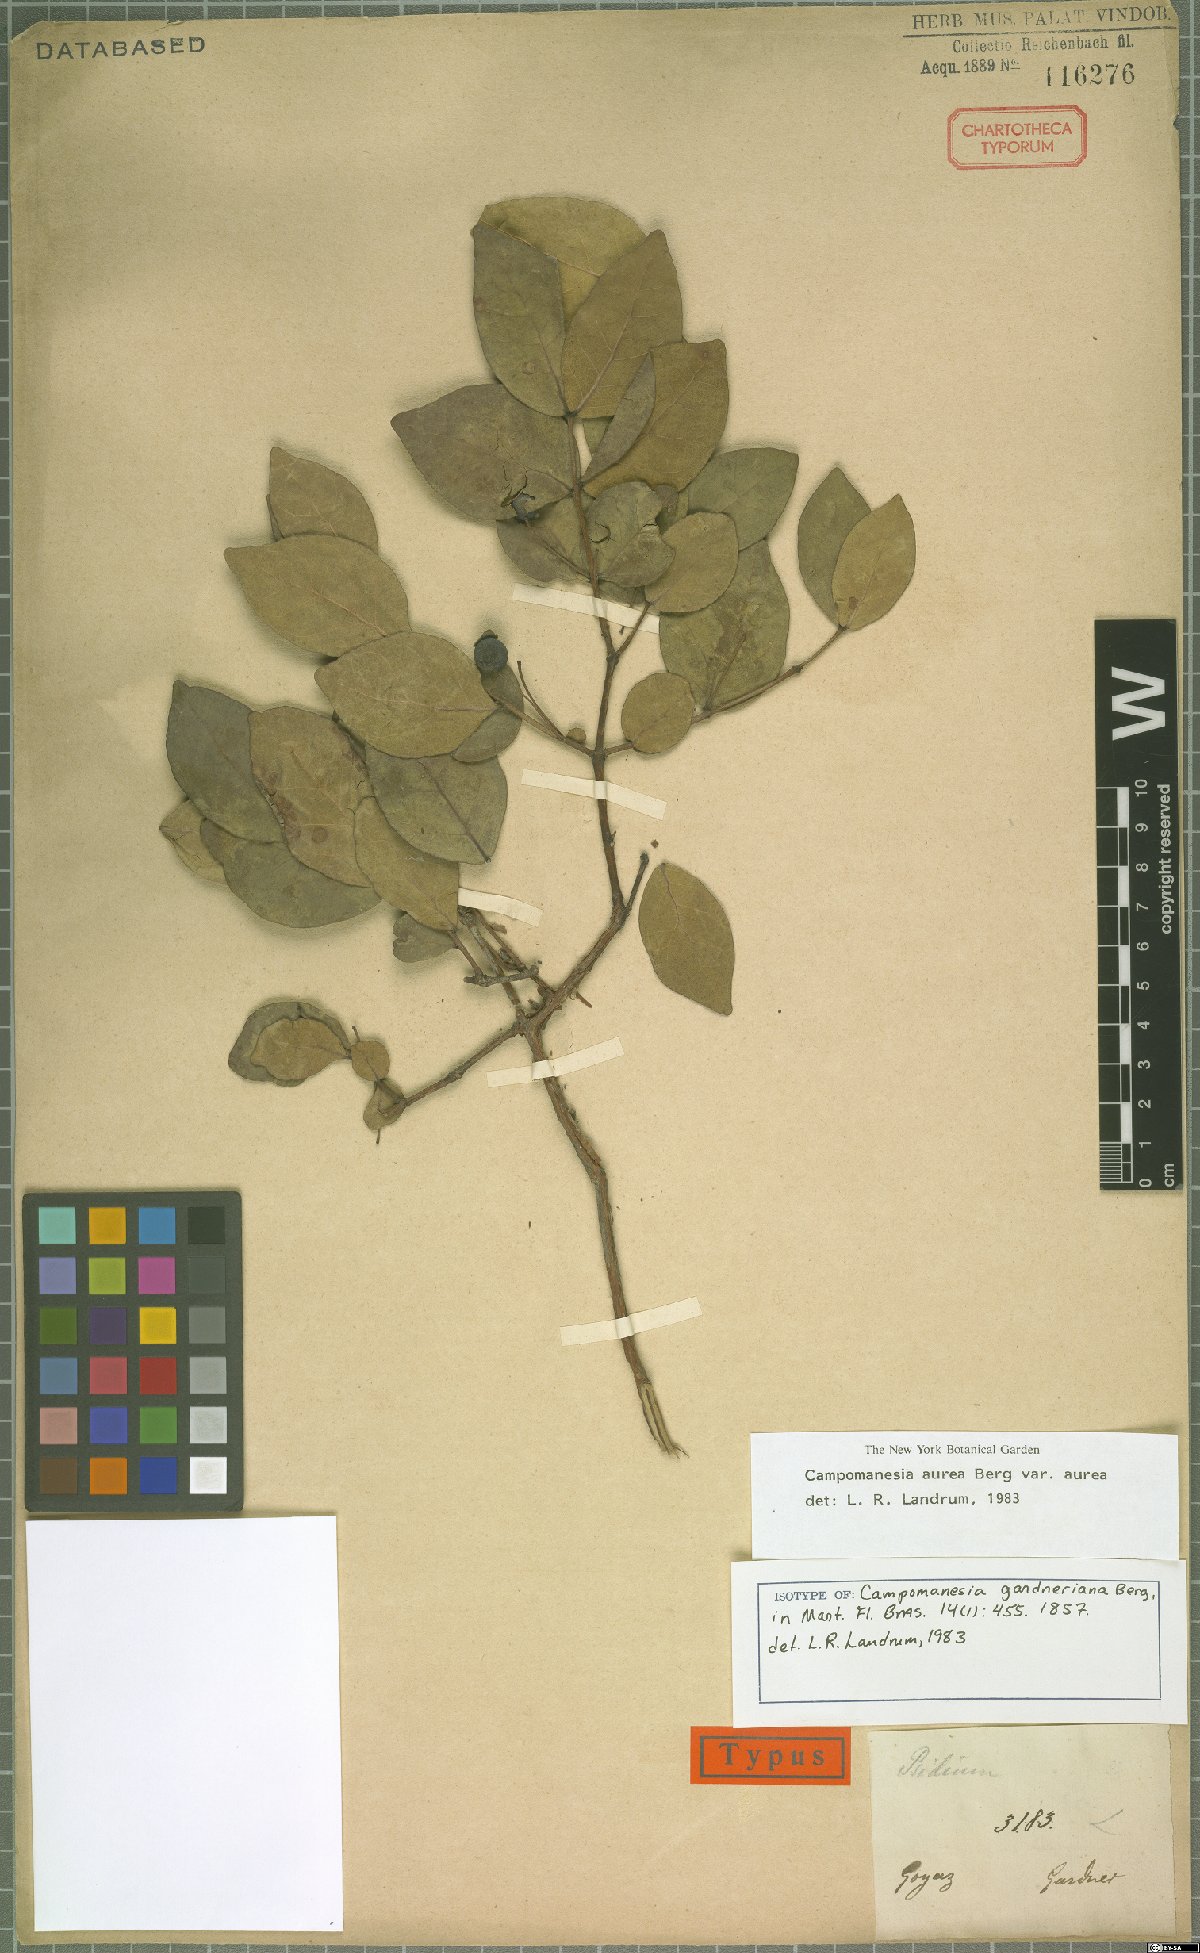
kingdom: Plantae
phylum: Tracheophyta
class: Magnoliopsida
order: Myrtales
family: Myrtaceae
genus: Campomanesia
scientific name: Campomanesia aurea
